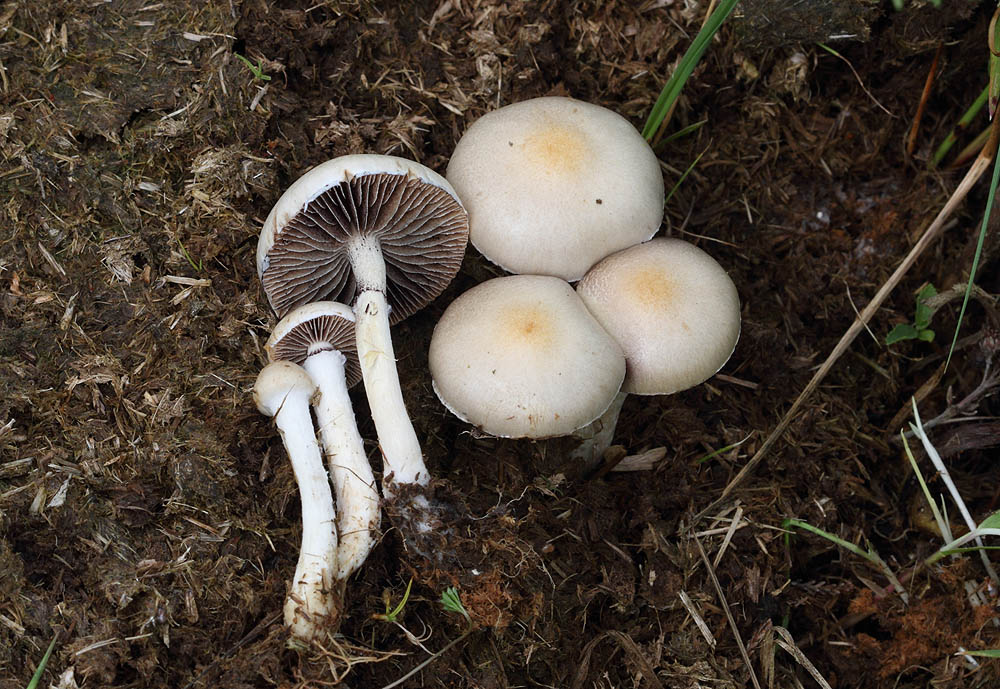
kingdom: Fungi
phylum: Basidiomycota
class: Agaricomycetes
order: Agaricales
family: Strophariaceae
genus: Deconica
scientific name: Deconica moelleri
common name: Møllers stråhat
